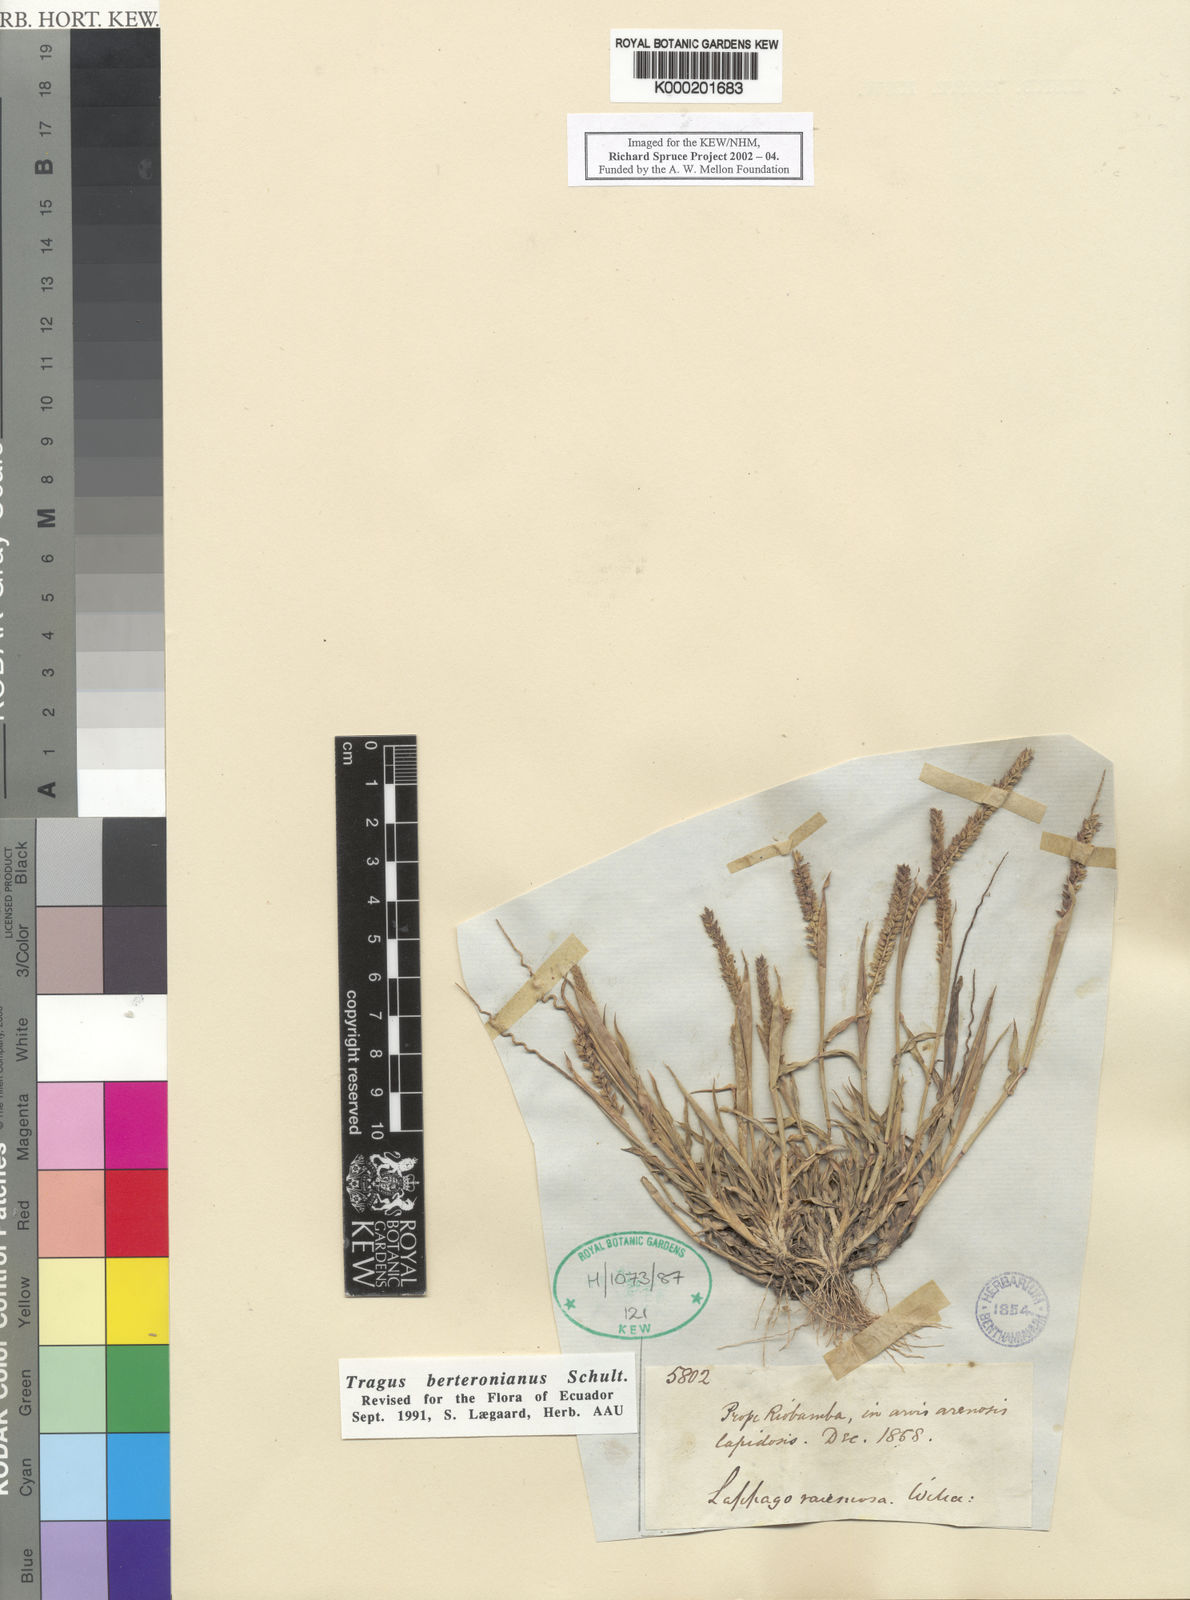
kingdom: Plantae
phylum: Tracheophyta
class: Liliopsida
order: Poales
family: Poaceae
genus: Tragus
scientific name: Tragus berteronianus
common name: African bur-grass
